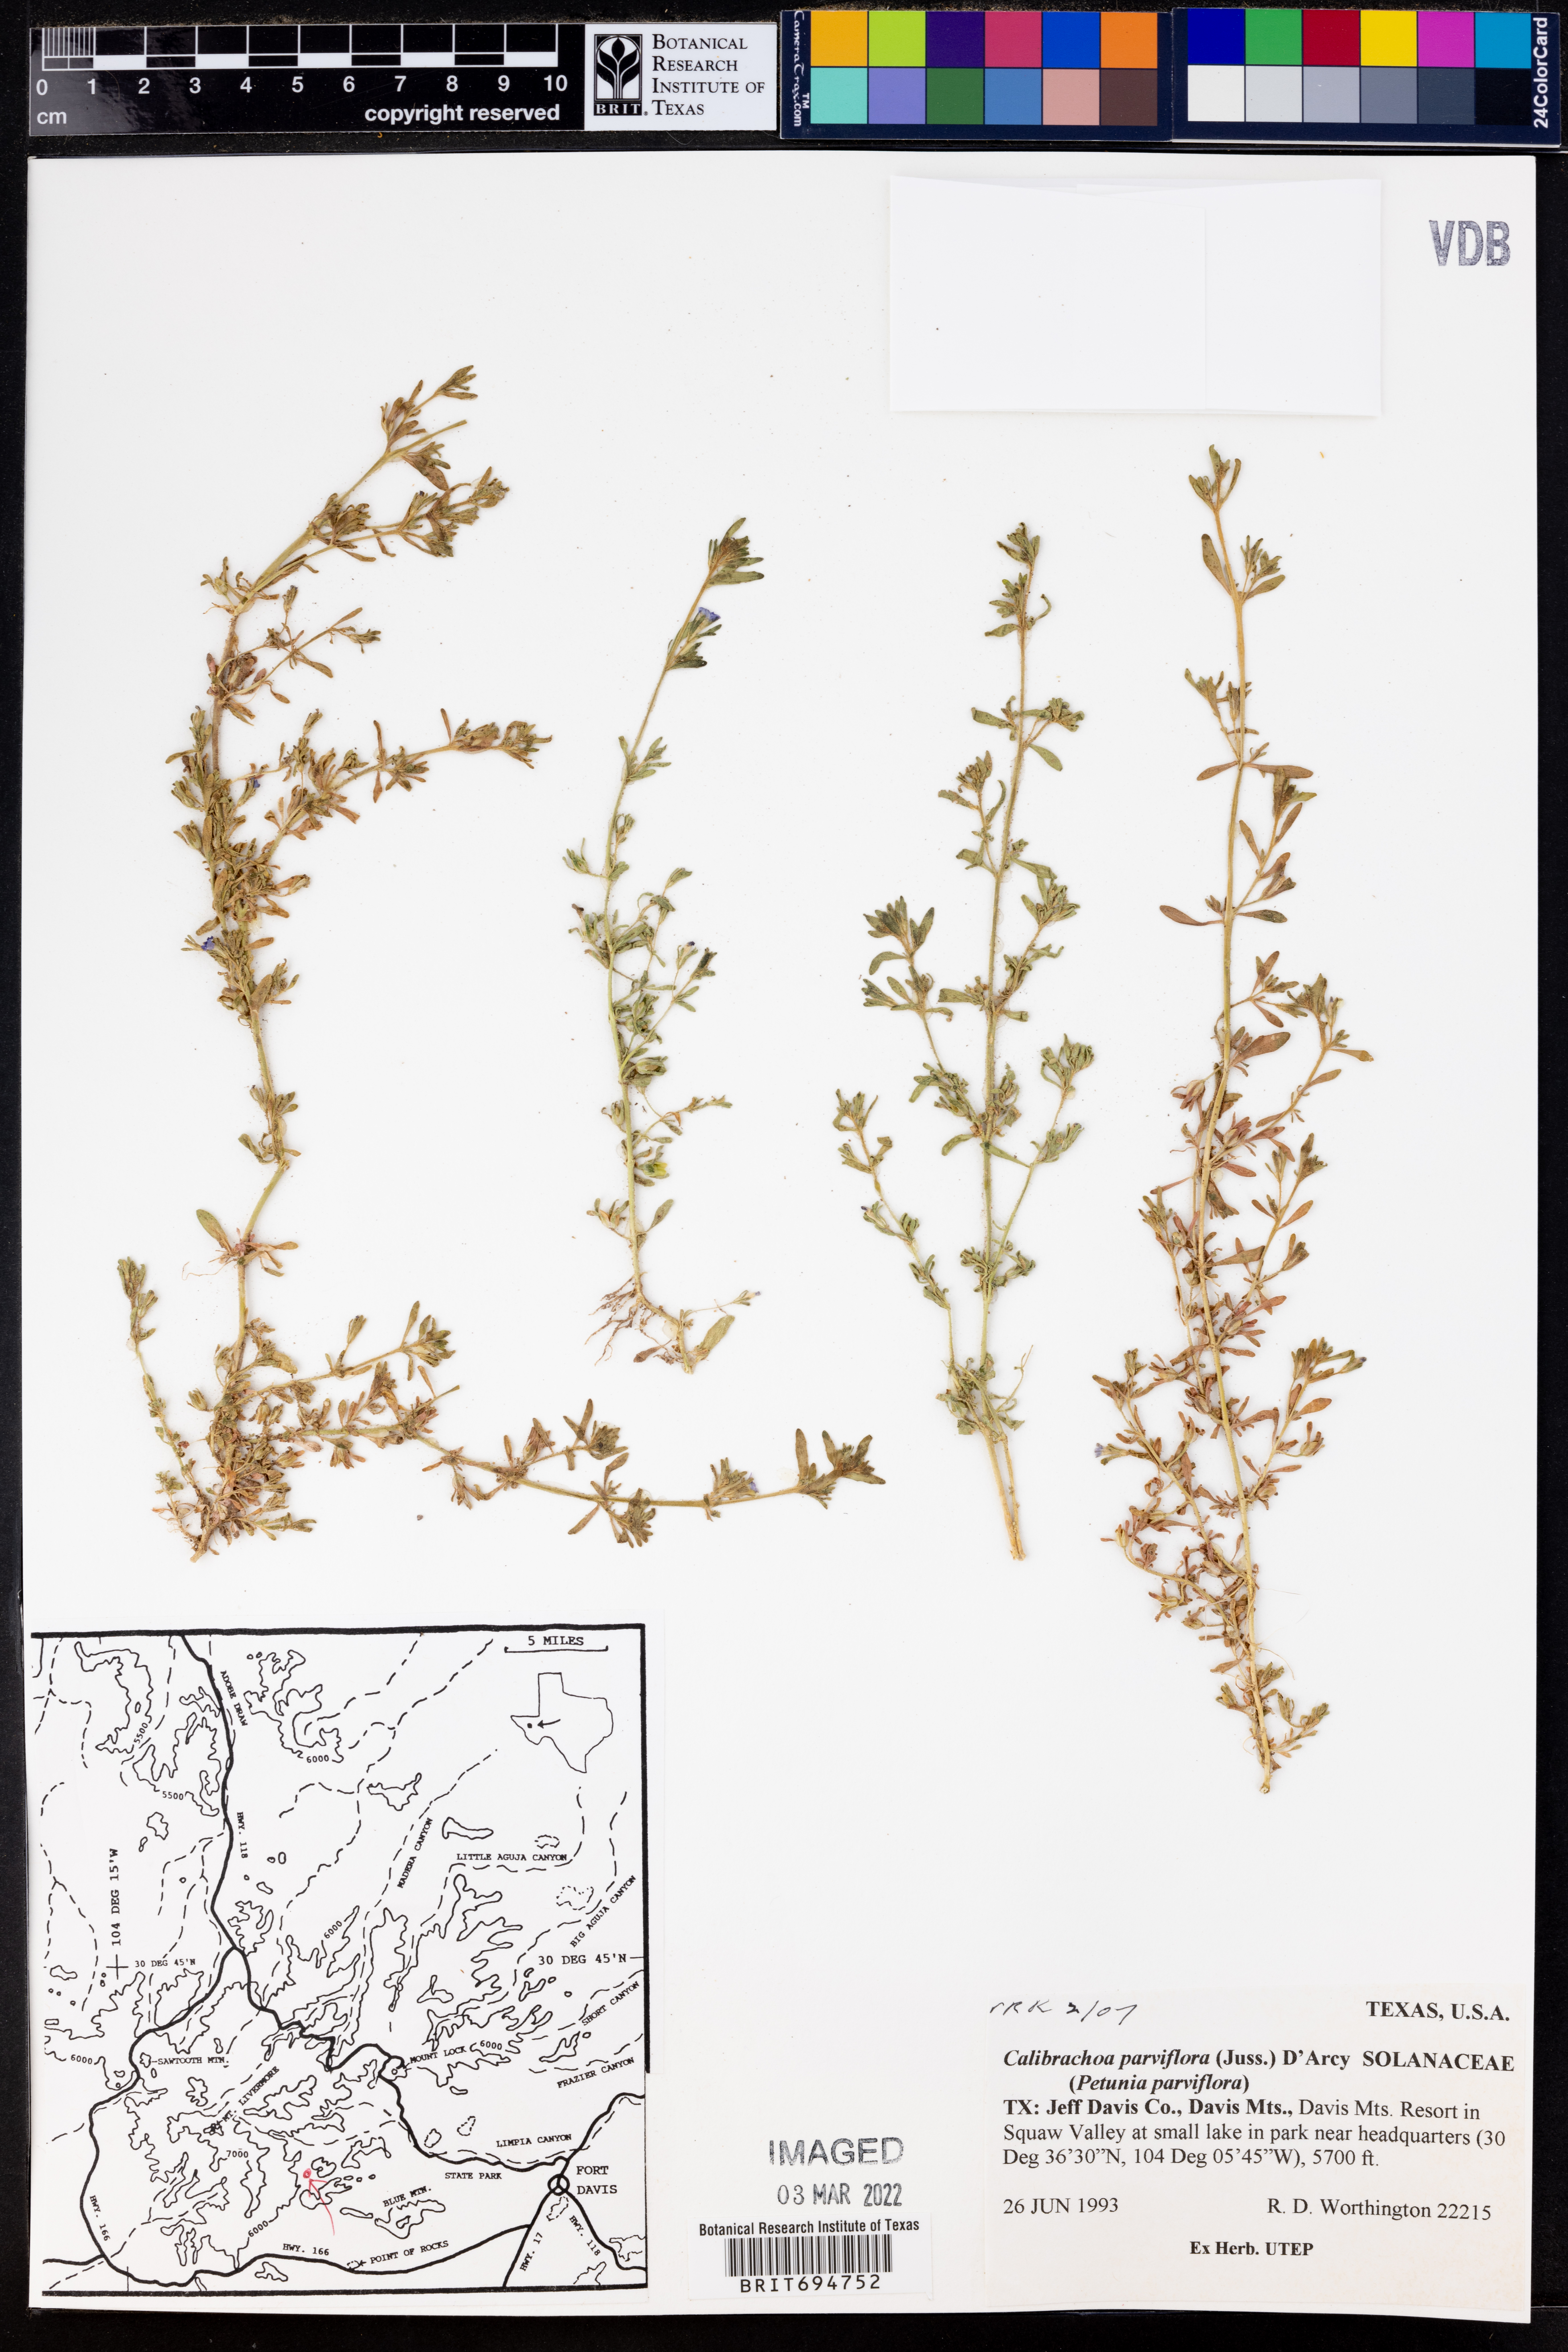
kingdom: Plantae
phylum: Tracheophyta
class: Magnoliopsida
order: Solanales
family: Solanaceae
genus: Calibrachoa
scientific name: Calibrachoa parviflora
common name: Seaside petunia
